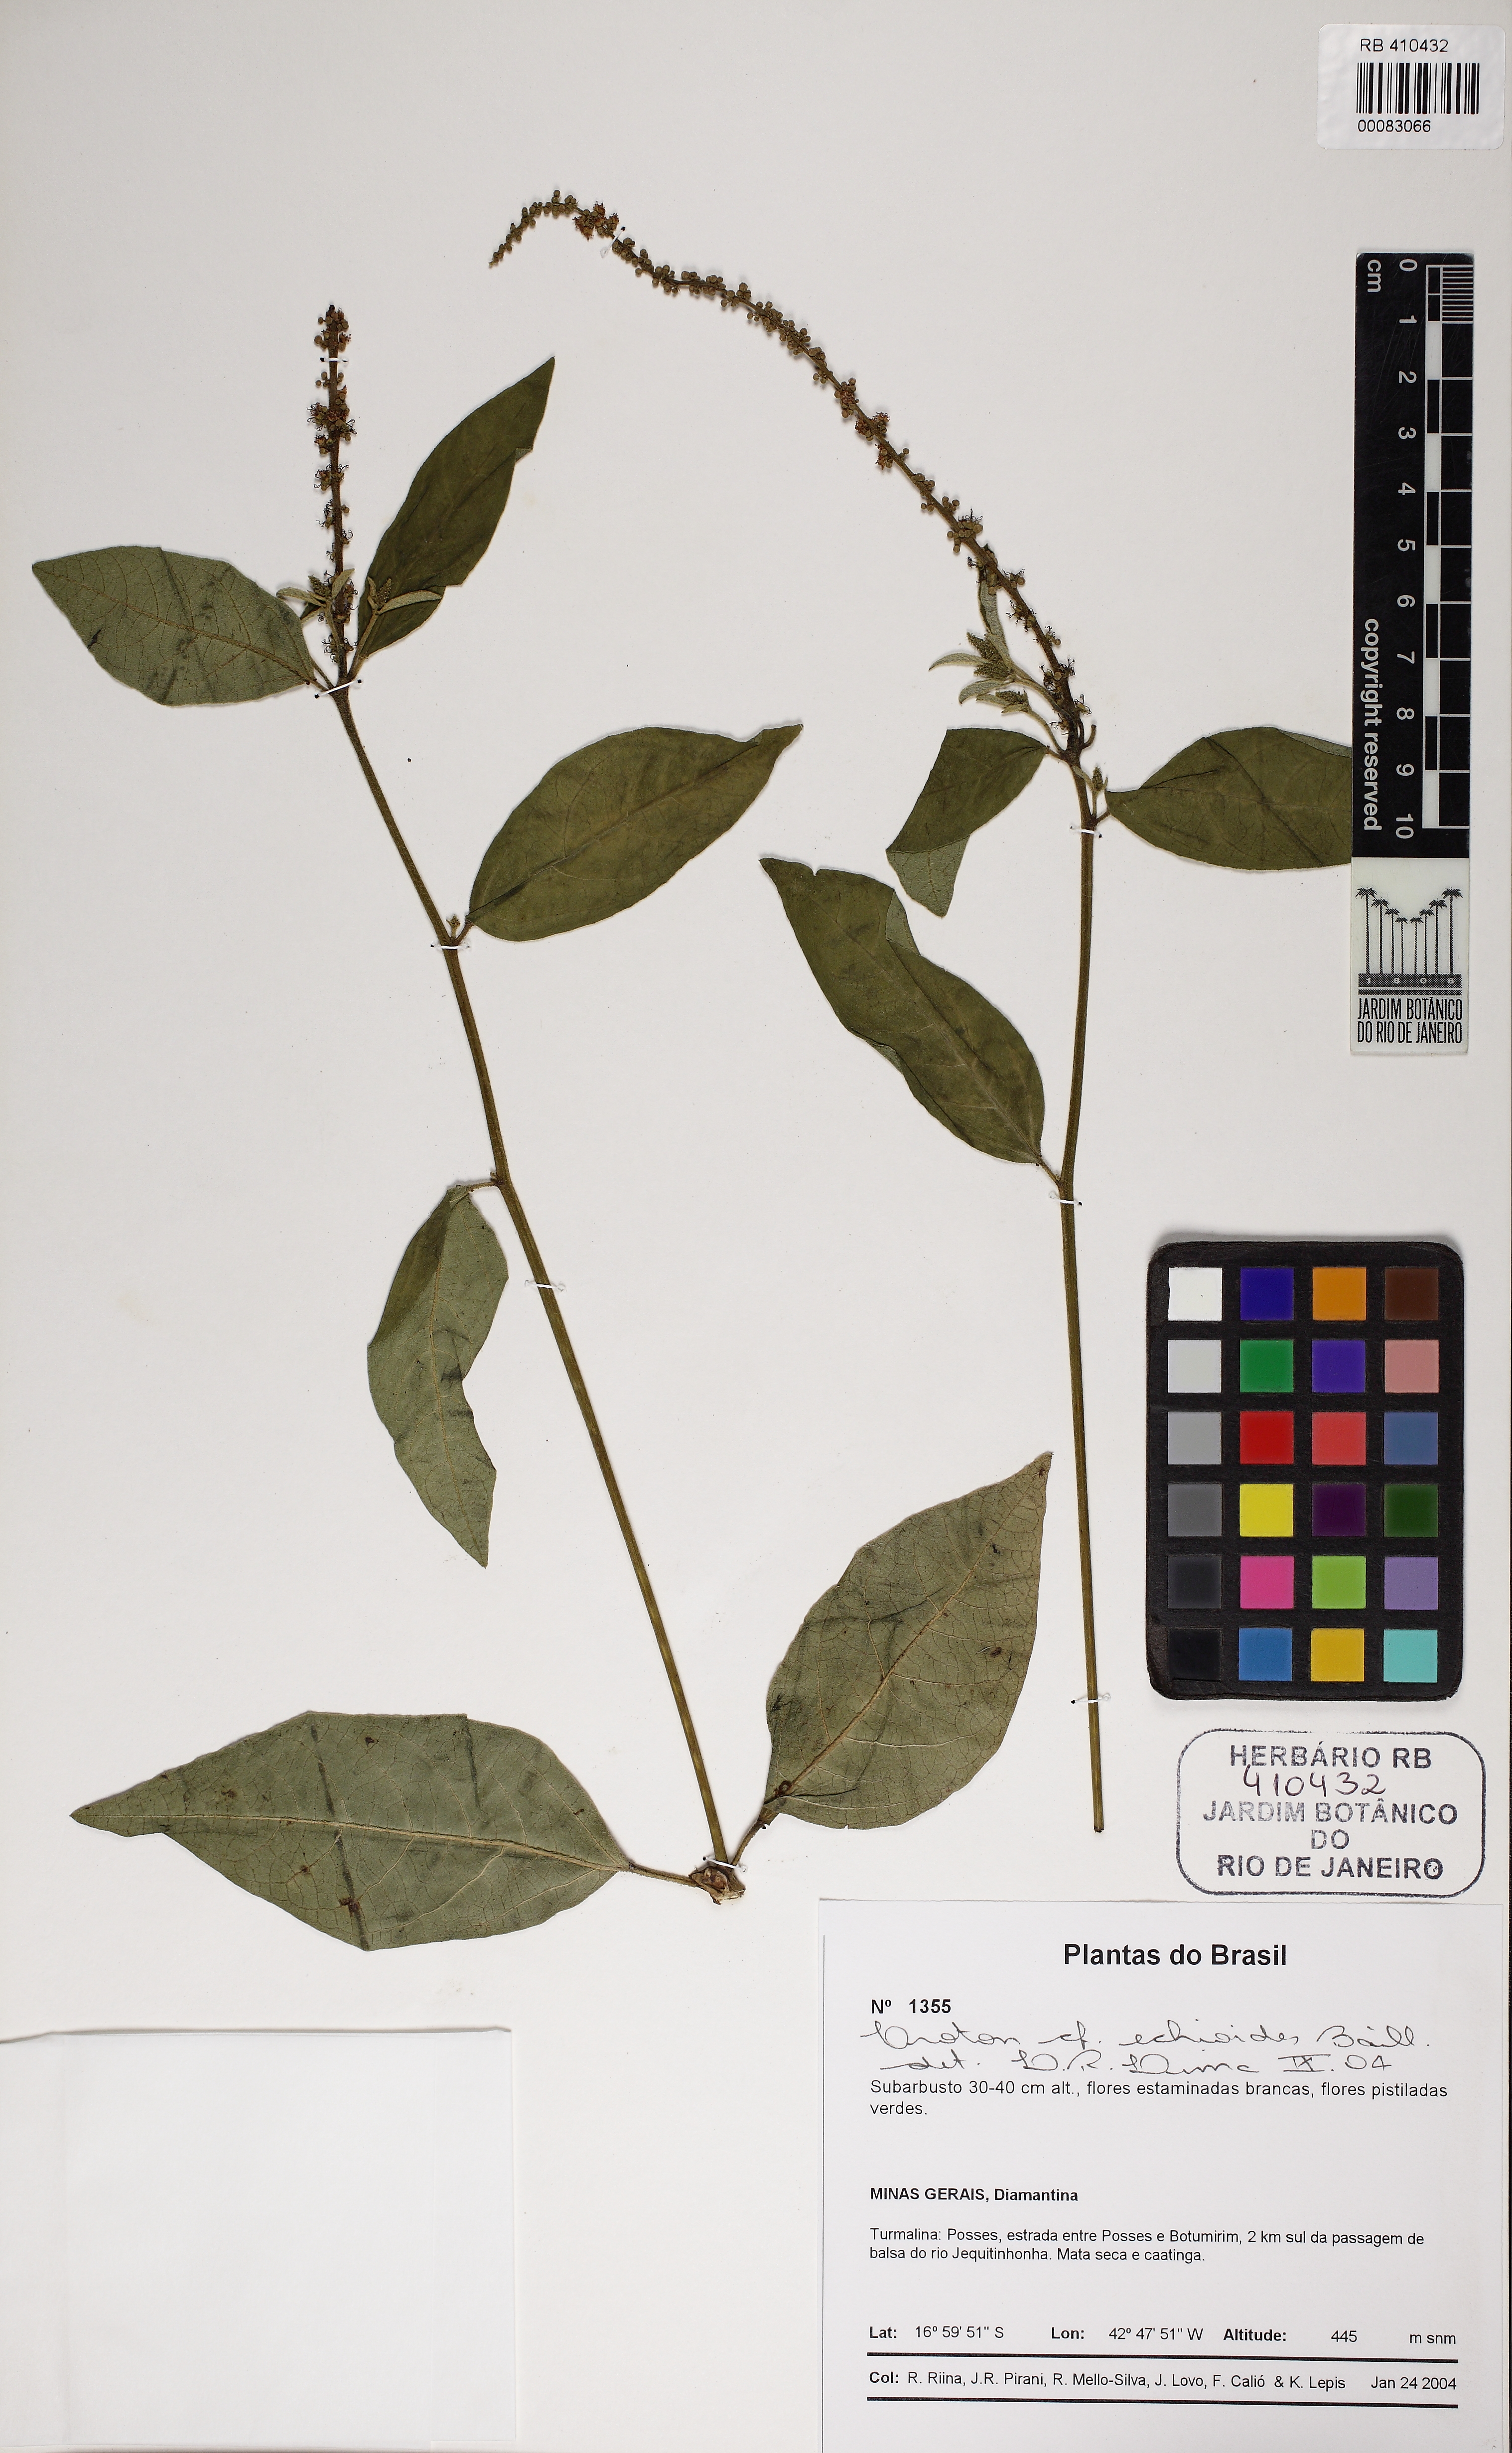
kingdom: Plantae
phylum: Tracheophyta
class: Magnoliopsida
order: Malpighiales
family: Euphorbiaceae
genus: Croton
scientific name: Croton echioideus
